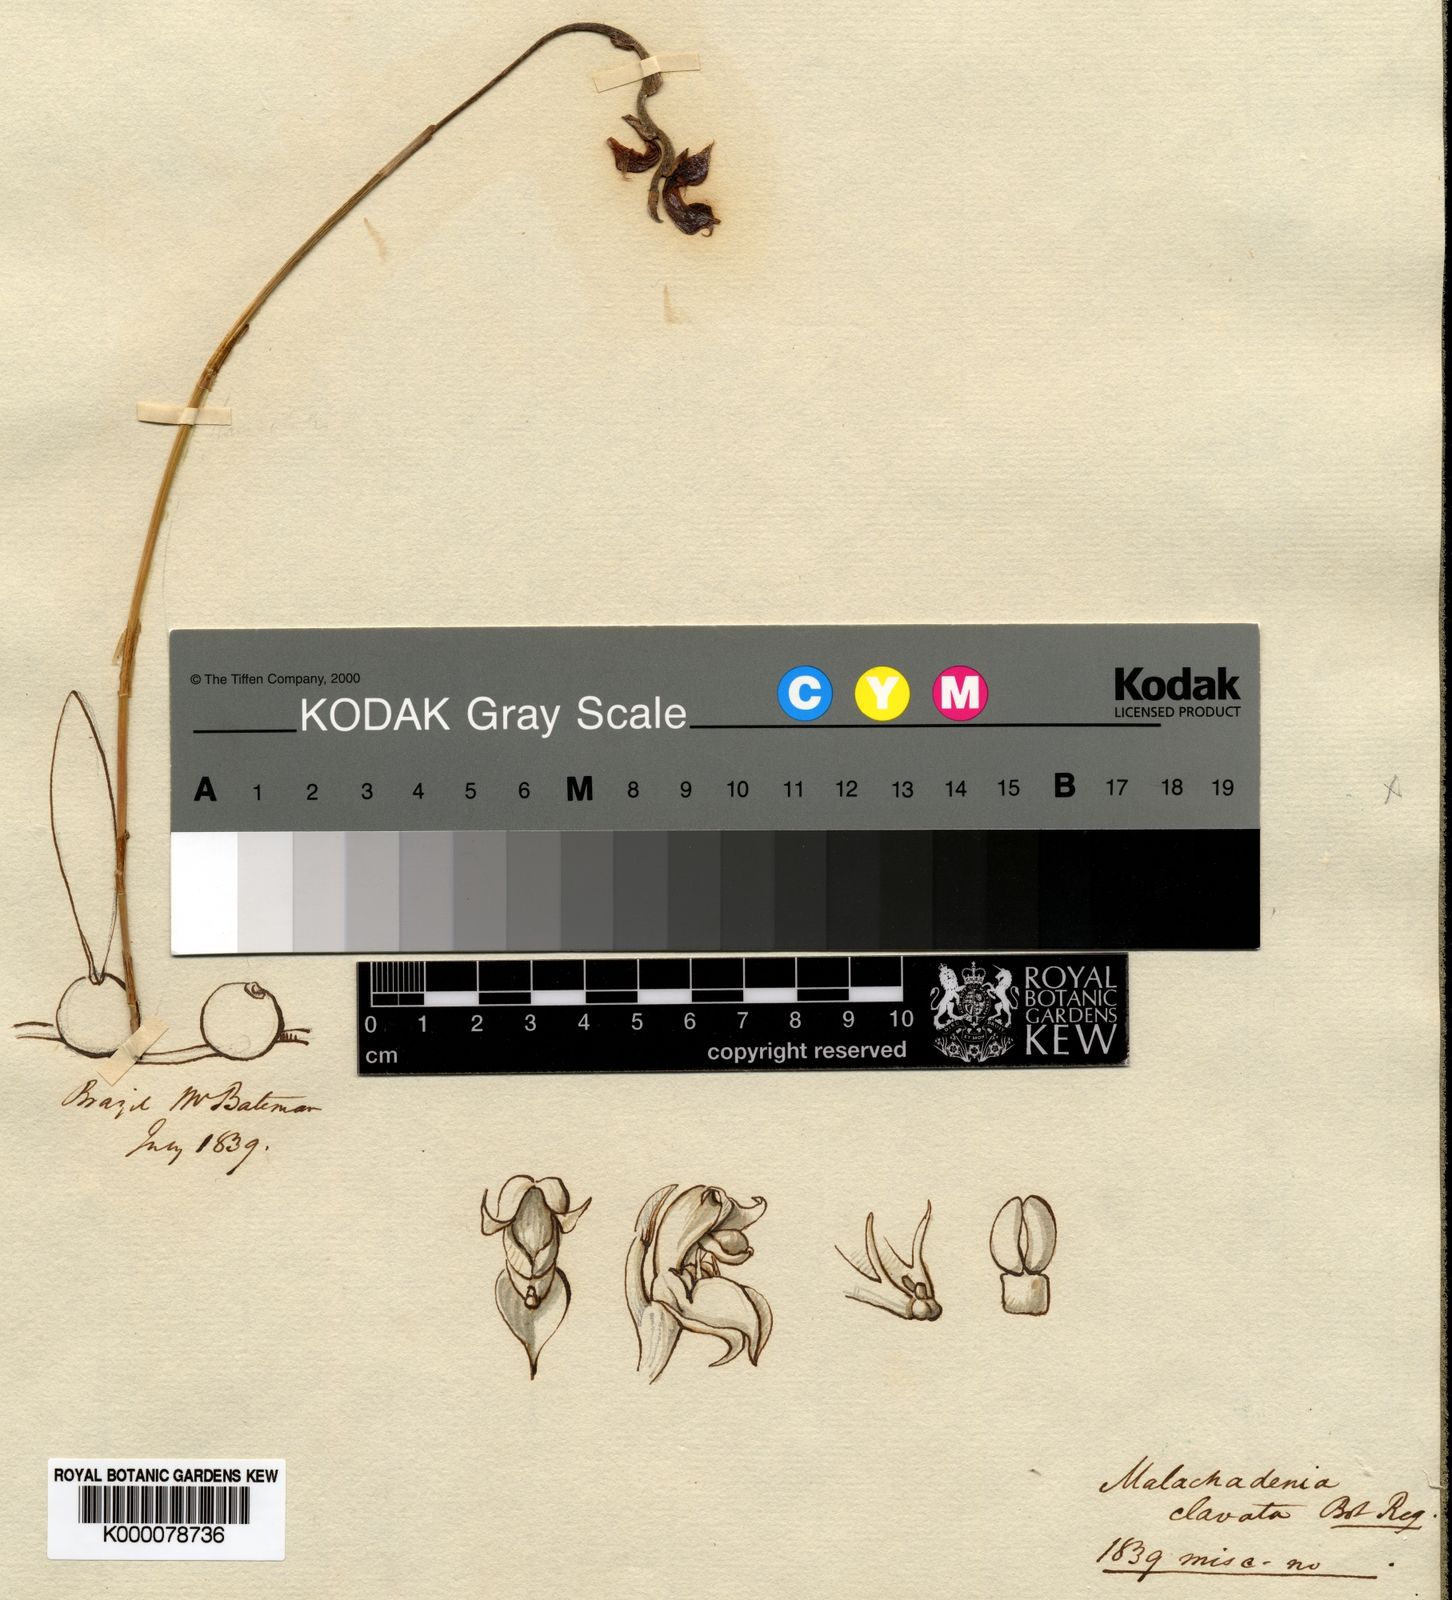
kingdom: Plantae
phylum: Tracheophyta
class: Liliopsida
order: Asparagales
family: Orchidaceae
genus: Bulbophyllum
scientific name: Bulbophyllum malachadenia
